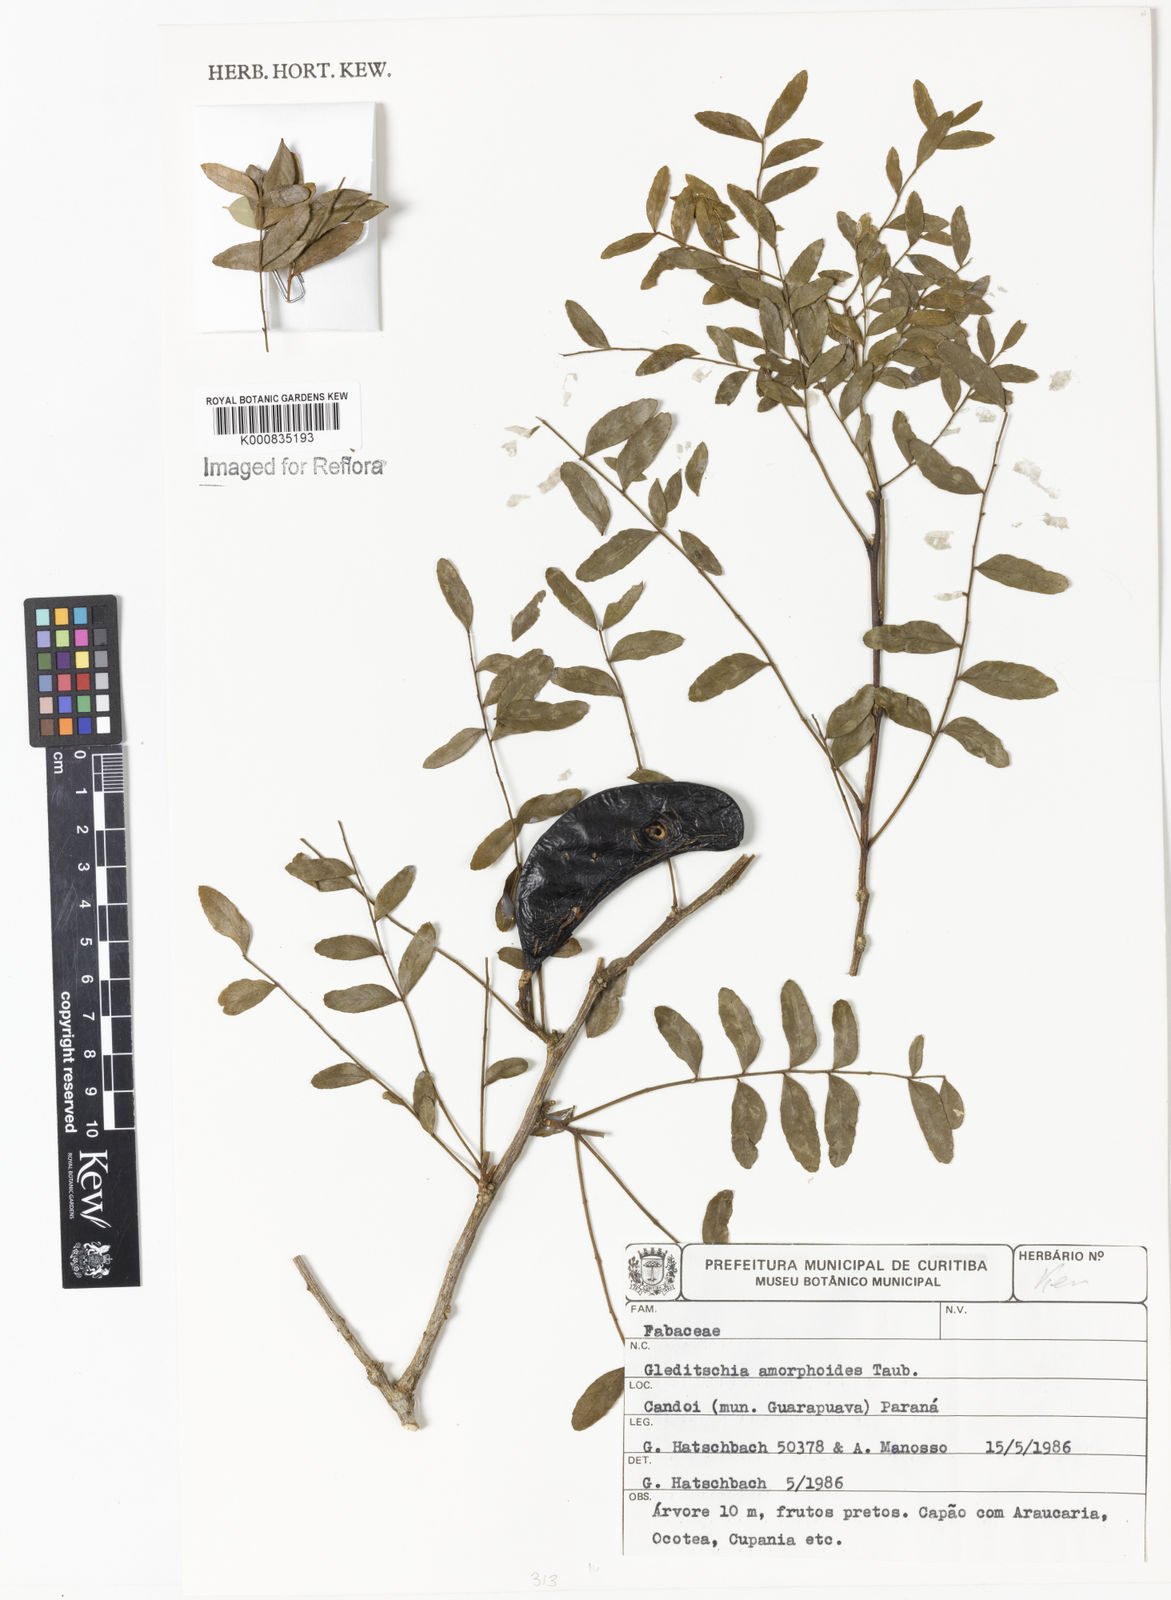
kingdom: Plantae
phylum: Tracheophyta
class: Magnoliopsida
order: Fabales
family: Fabaceae
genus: Gleditsia
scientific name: Gleditsia amorphoides
